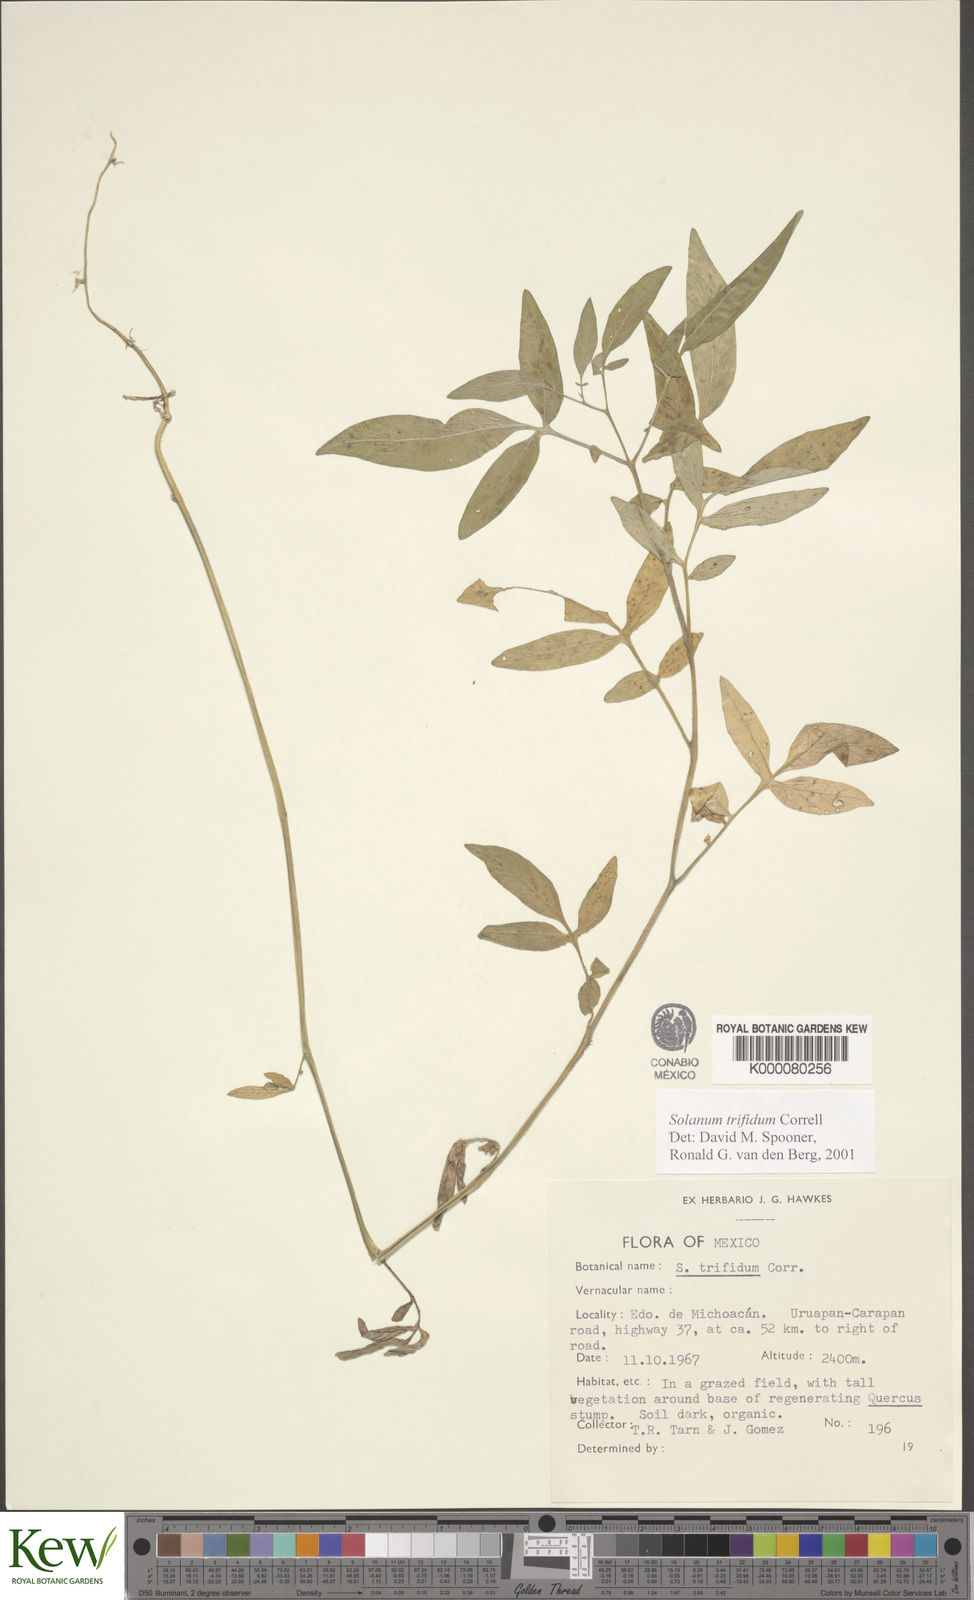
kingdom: Plantae
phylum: Tracheophyta
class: Magnoliopsida
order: Solanales
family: Solanaceae
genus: Solanum
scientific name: Solanum trifidum
